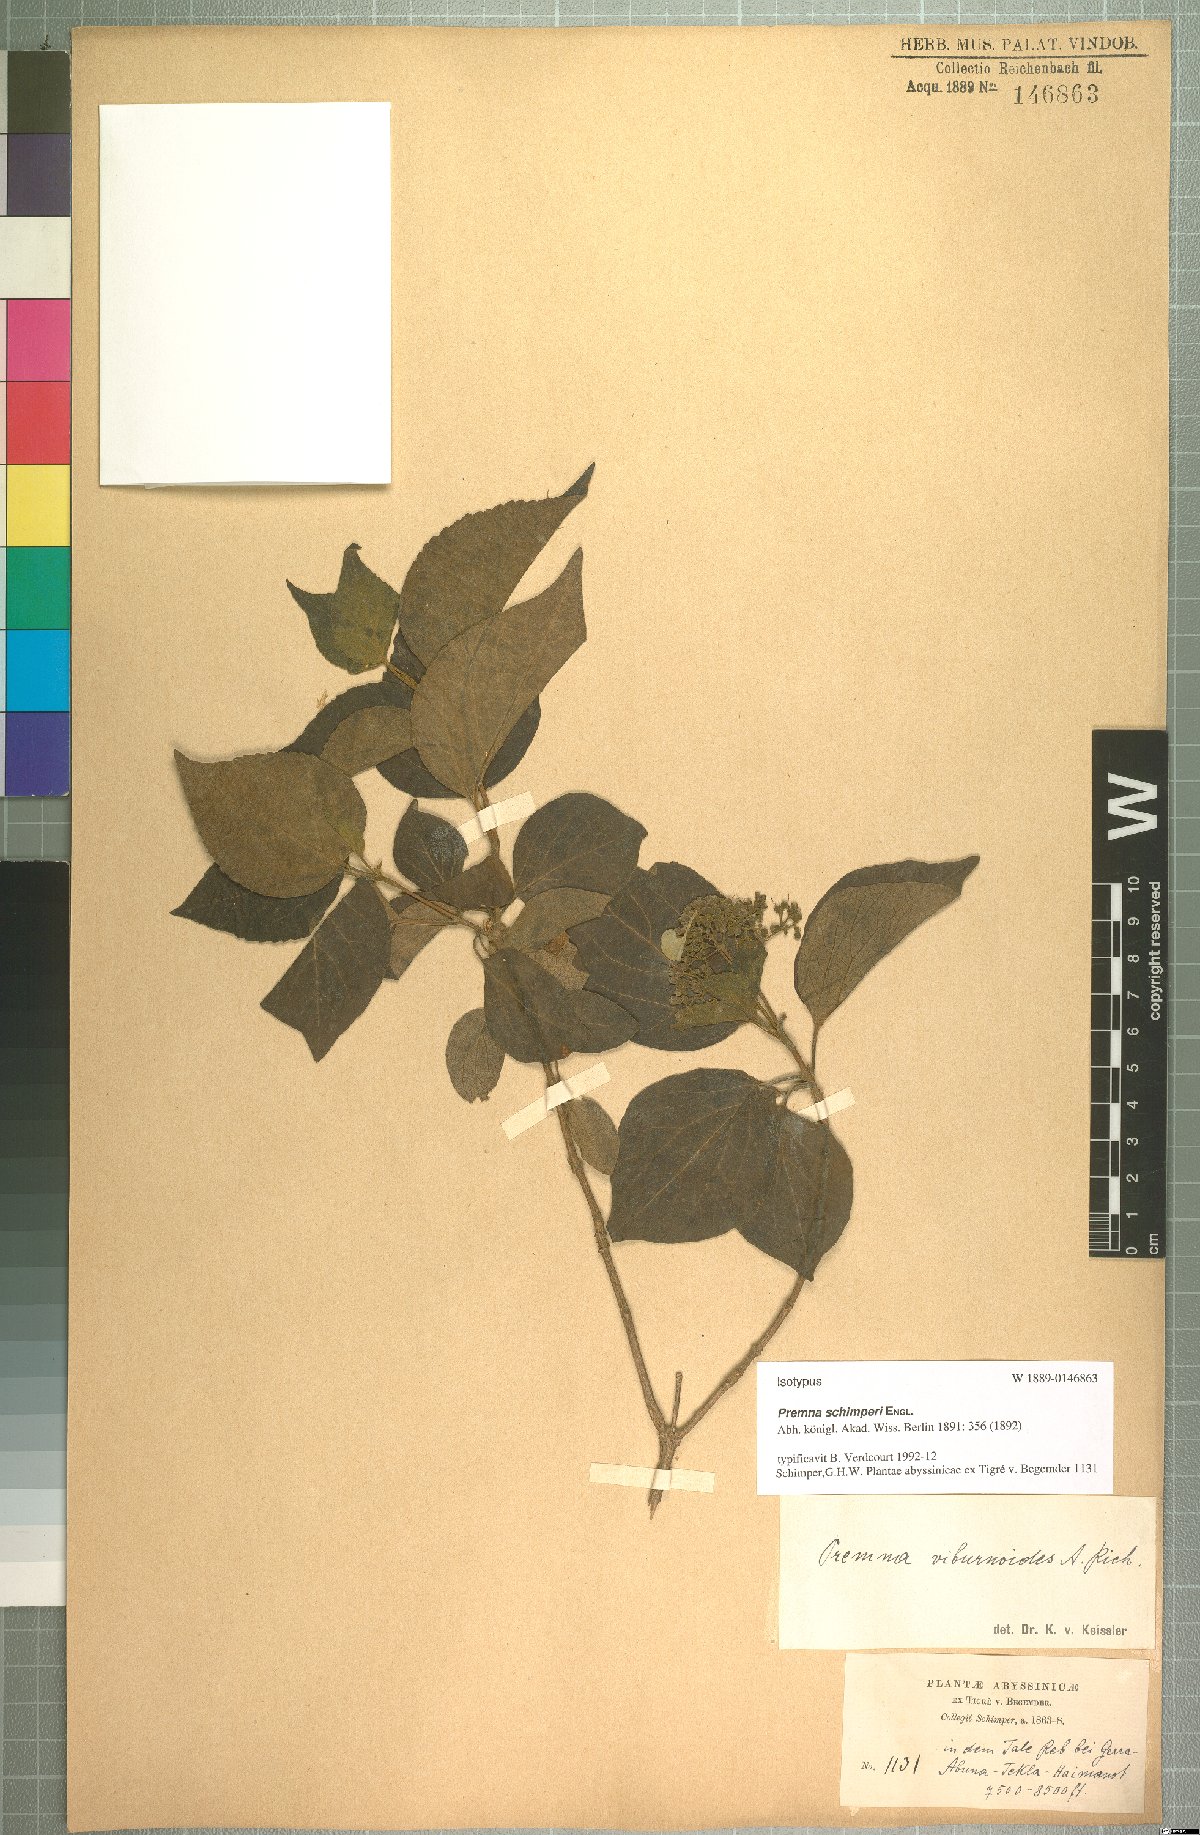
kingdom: Plantae
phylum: Tracheophyta
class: Magnoliopsida
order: Lamiales
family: Lamiaceae
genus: Premna
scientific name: Premna schimperi
